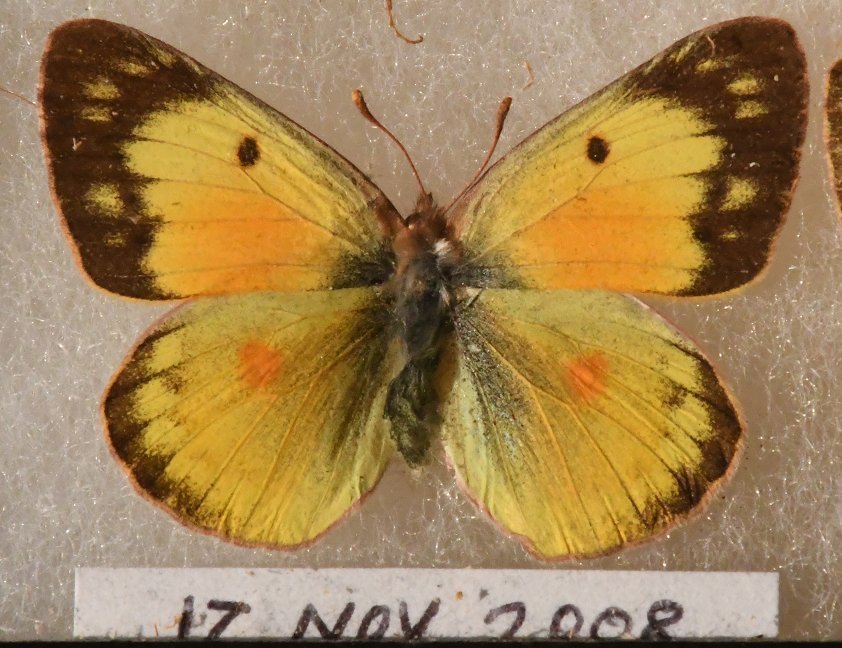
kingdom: Animalia
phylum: Arthropoda
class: Insecta
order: Lepidoptera
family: Pieridae
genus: Colias
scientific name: Colias eurytheme
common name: Orange Sulphur
